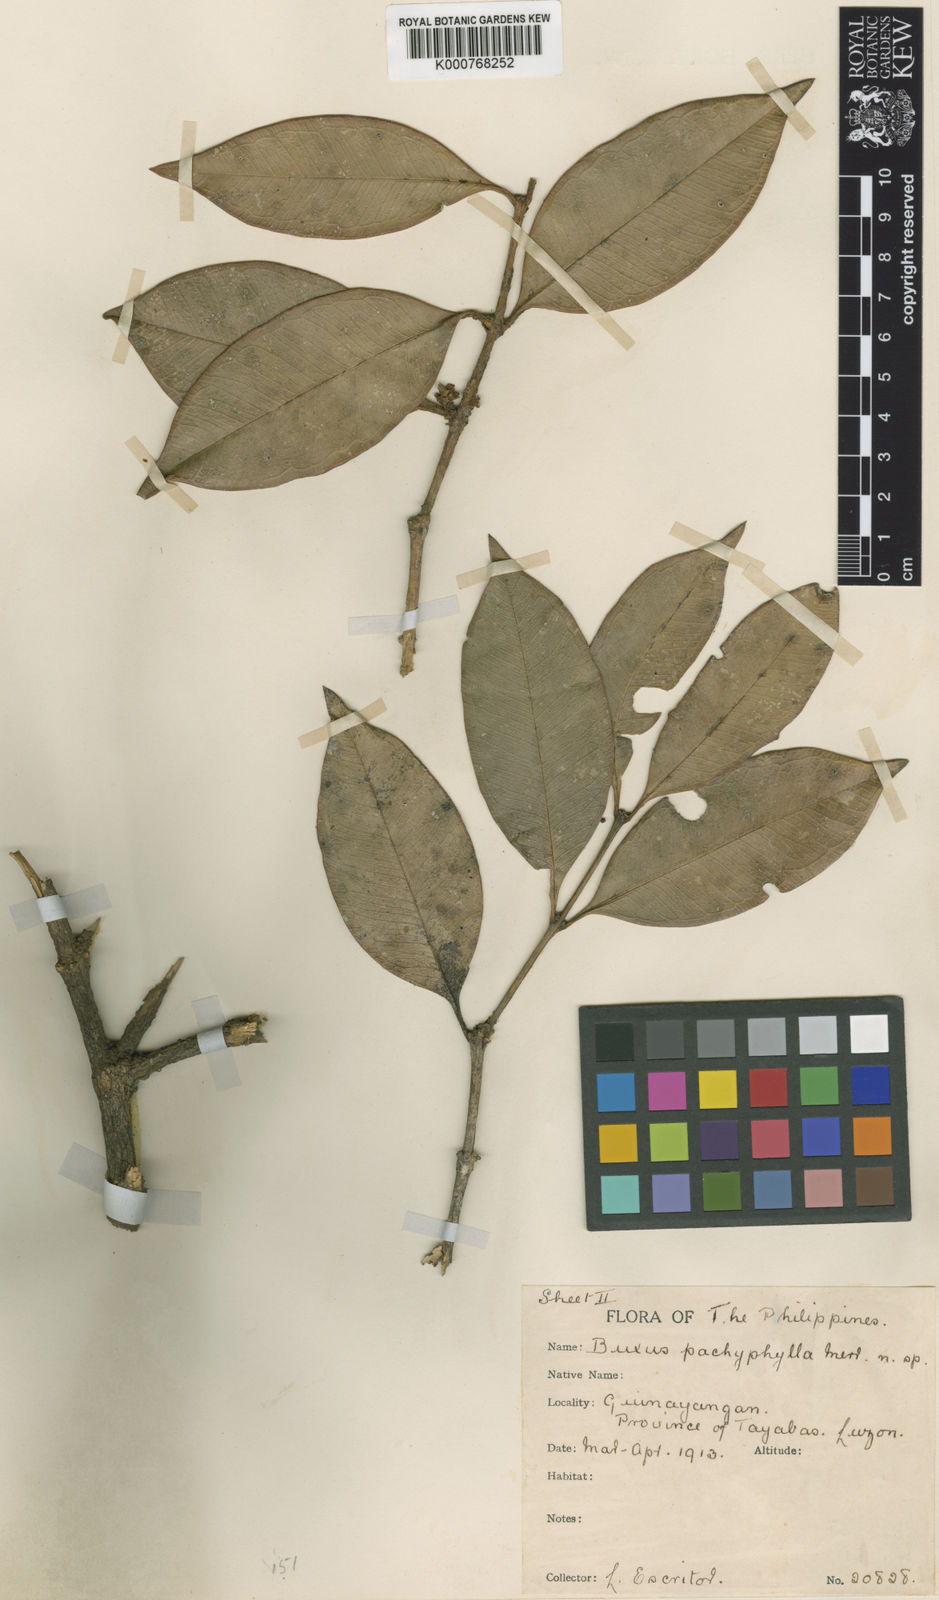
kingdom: Plantae
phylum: Tracheophyta
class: Magnoliopsida
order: Buxales
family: Buxaceae
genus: Buxus
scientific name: Buxus pachyphylla
